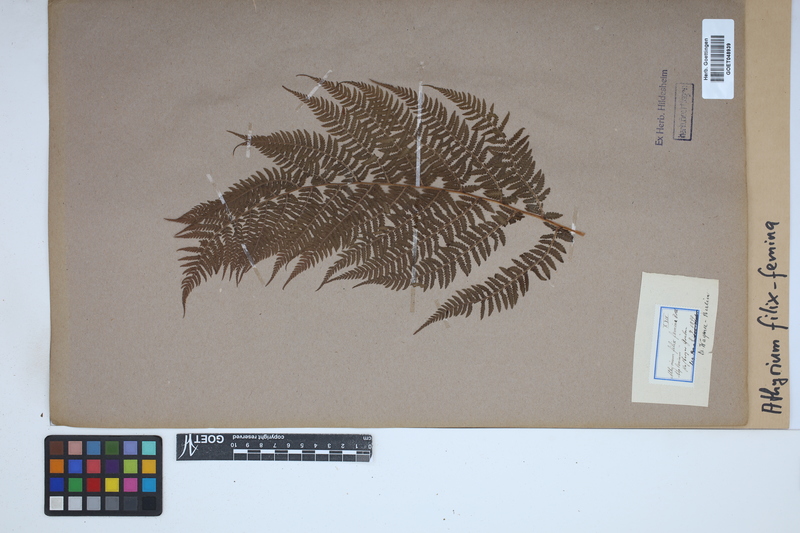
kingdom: Plantae
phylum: Tracheophyta
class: Polypodiopsida
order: Polypodiales
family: Athyriaceae
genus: Athyrium
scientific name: Athyrium filix-femina
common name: Lady fern
